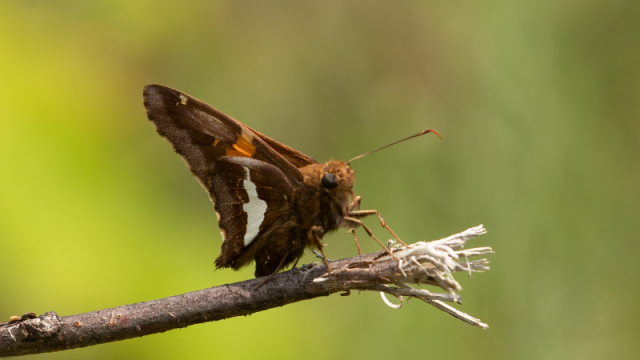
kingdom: Animalia
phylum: Arthropoda
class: Insecta
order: Lepidoptera
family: Hesperiidae
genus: Epargyreus
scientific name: Epargyreus clarus
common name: Silver-spotted Skipper
